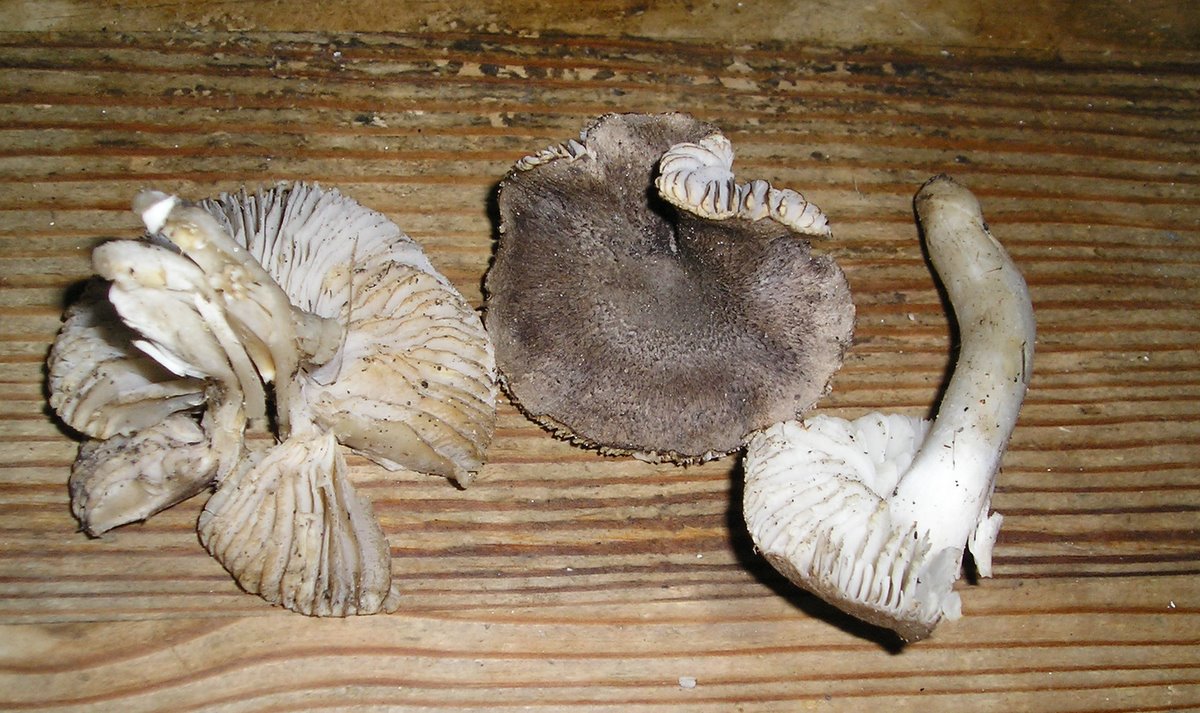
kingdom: Fungi
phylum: Basidiomycota
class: Agaricomycetes
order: Agaricales
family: Tricholomataceae
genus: Tricholoma
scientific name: Tricholoma scalpturatum
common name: gulplettet ridderhat
